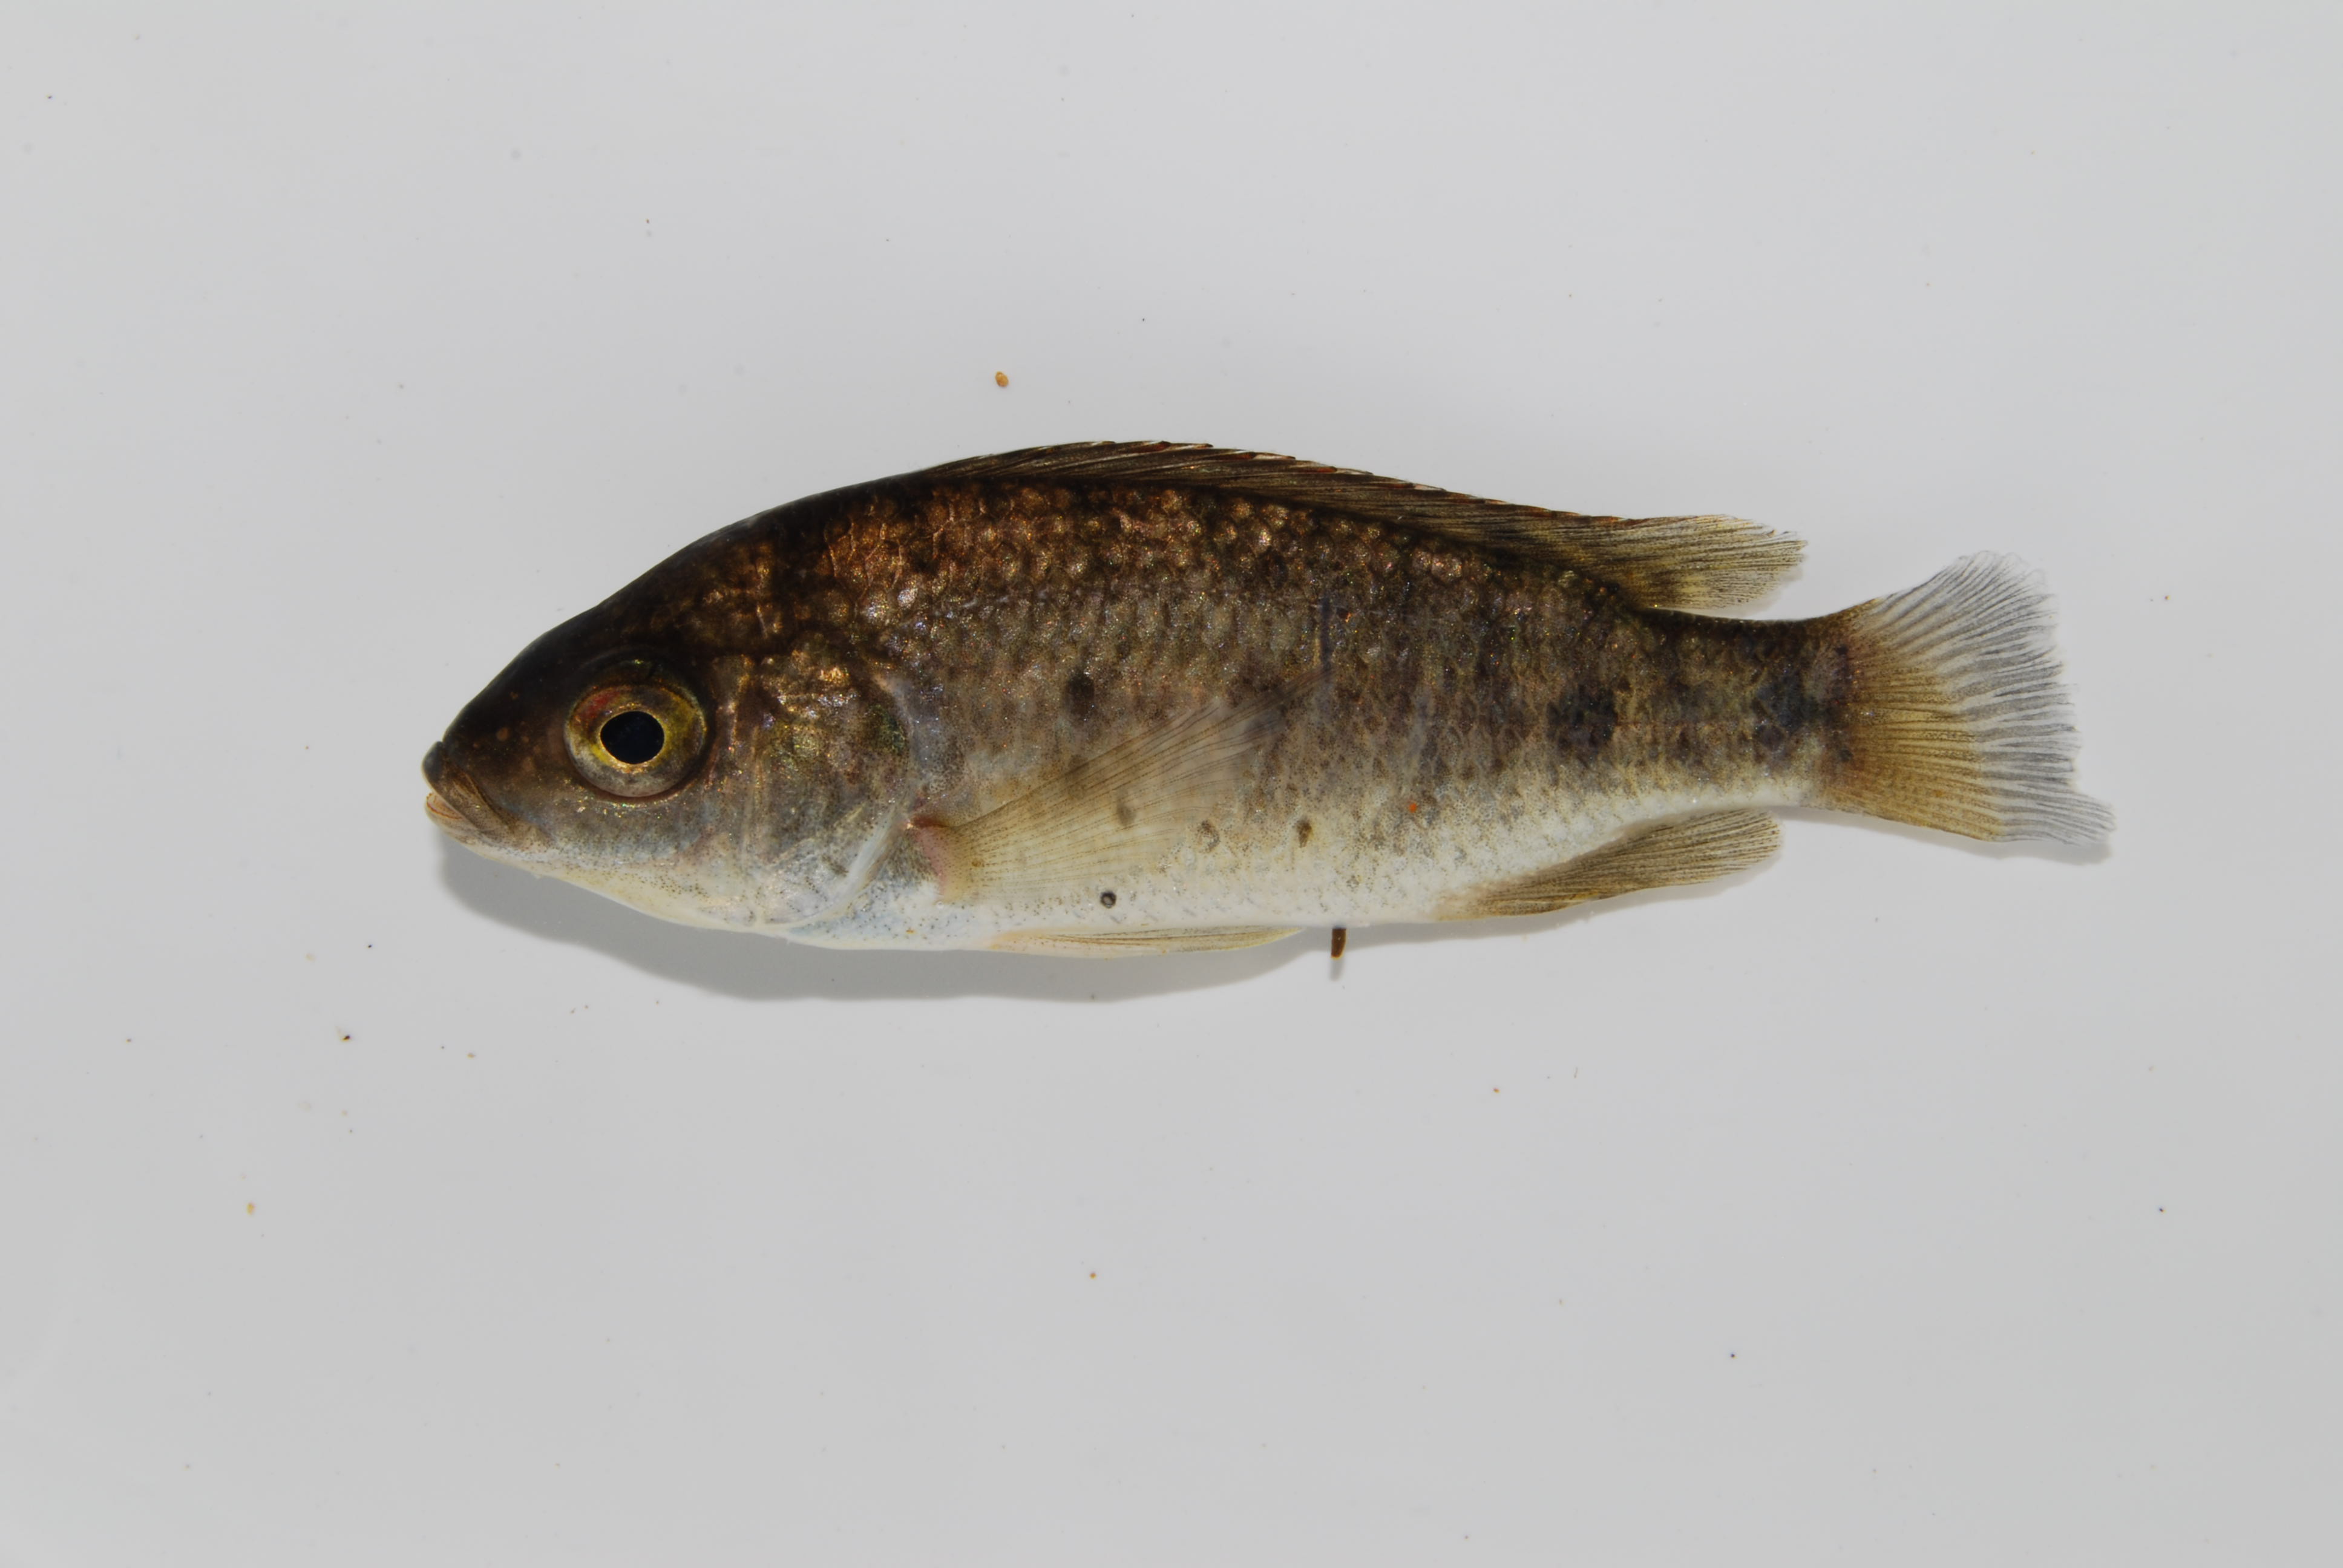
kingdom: Animalia
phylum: Chordata
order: Perciformes
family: Cichlidae
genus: Oreochromis
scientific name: Oreochromis mossambicus
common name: Mozambique tilapia
